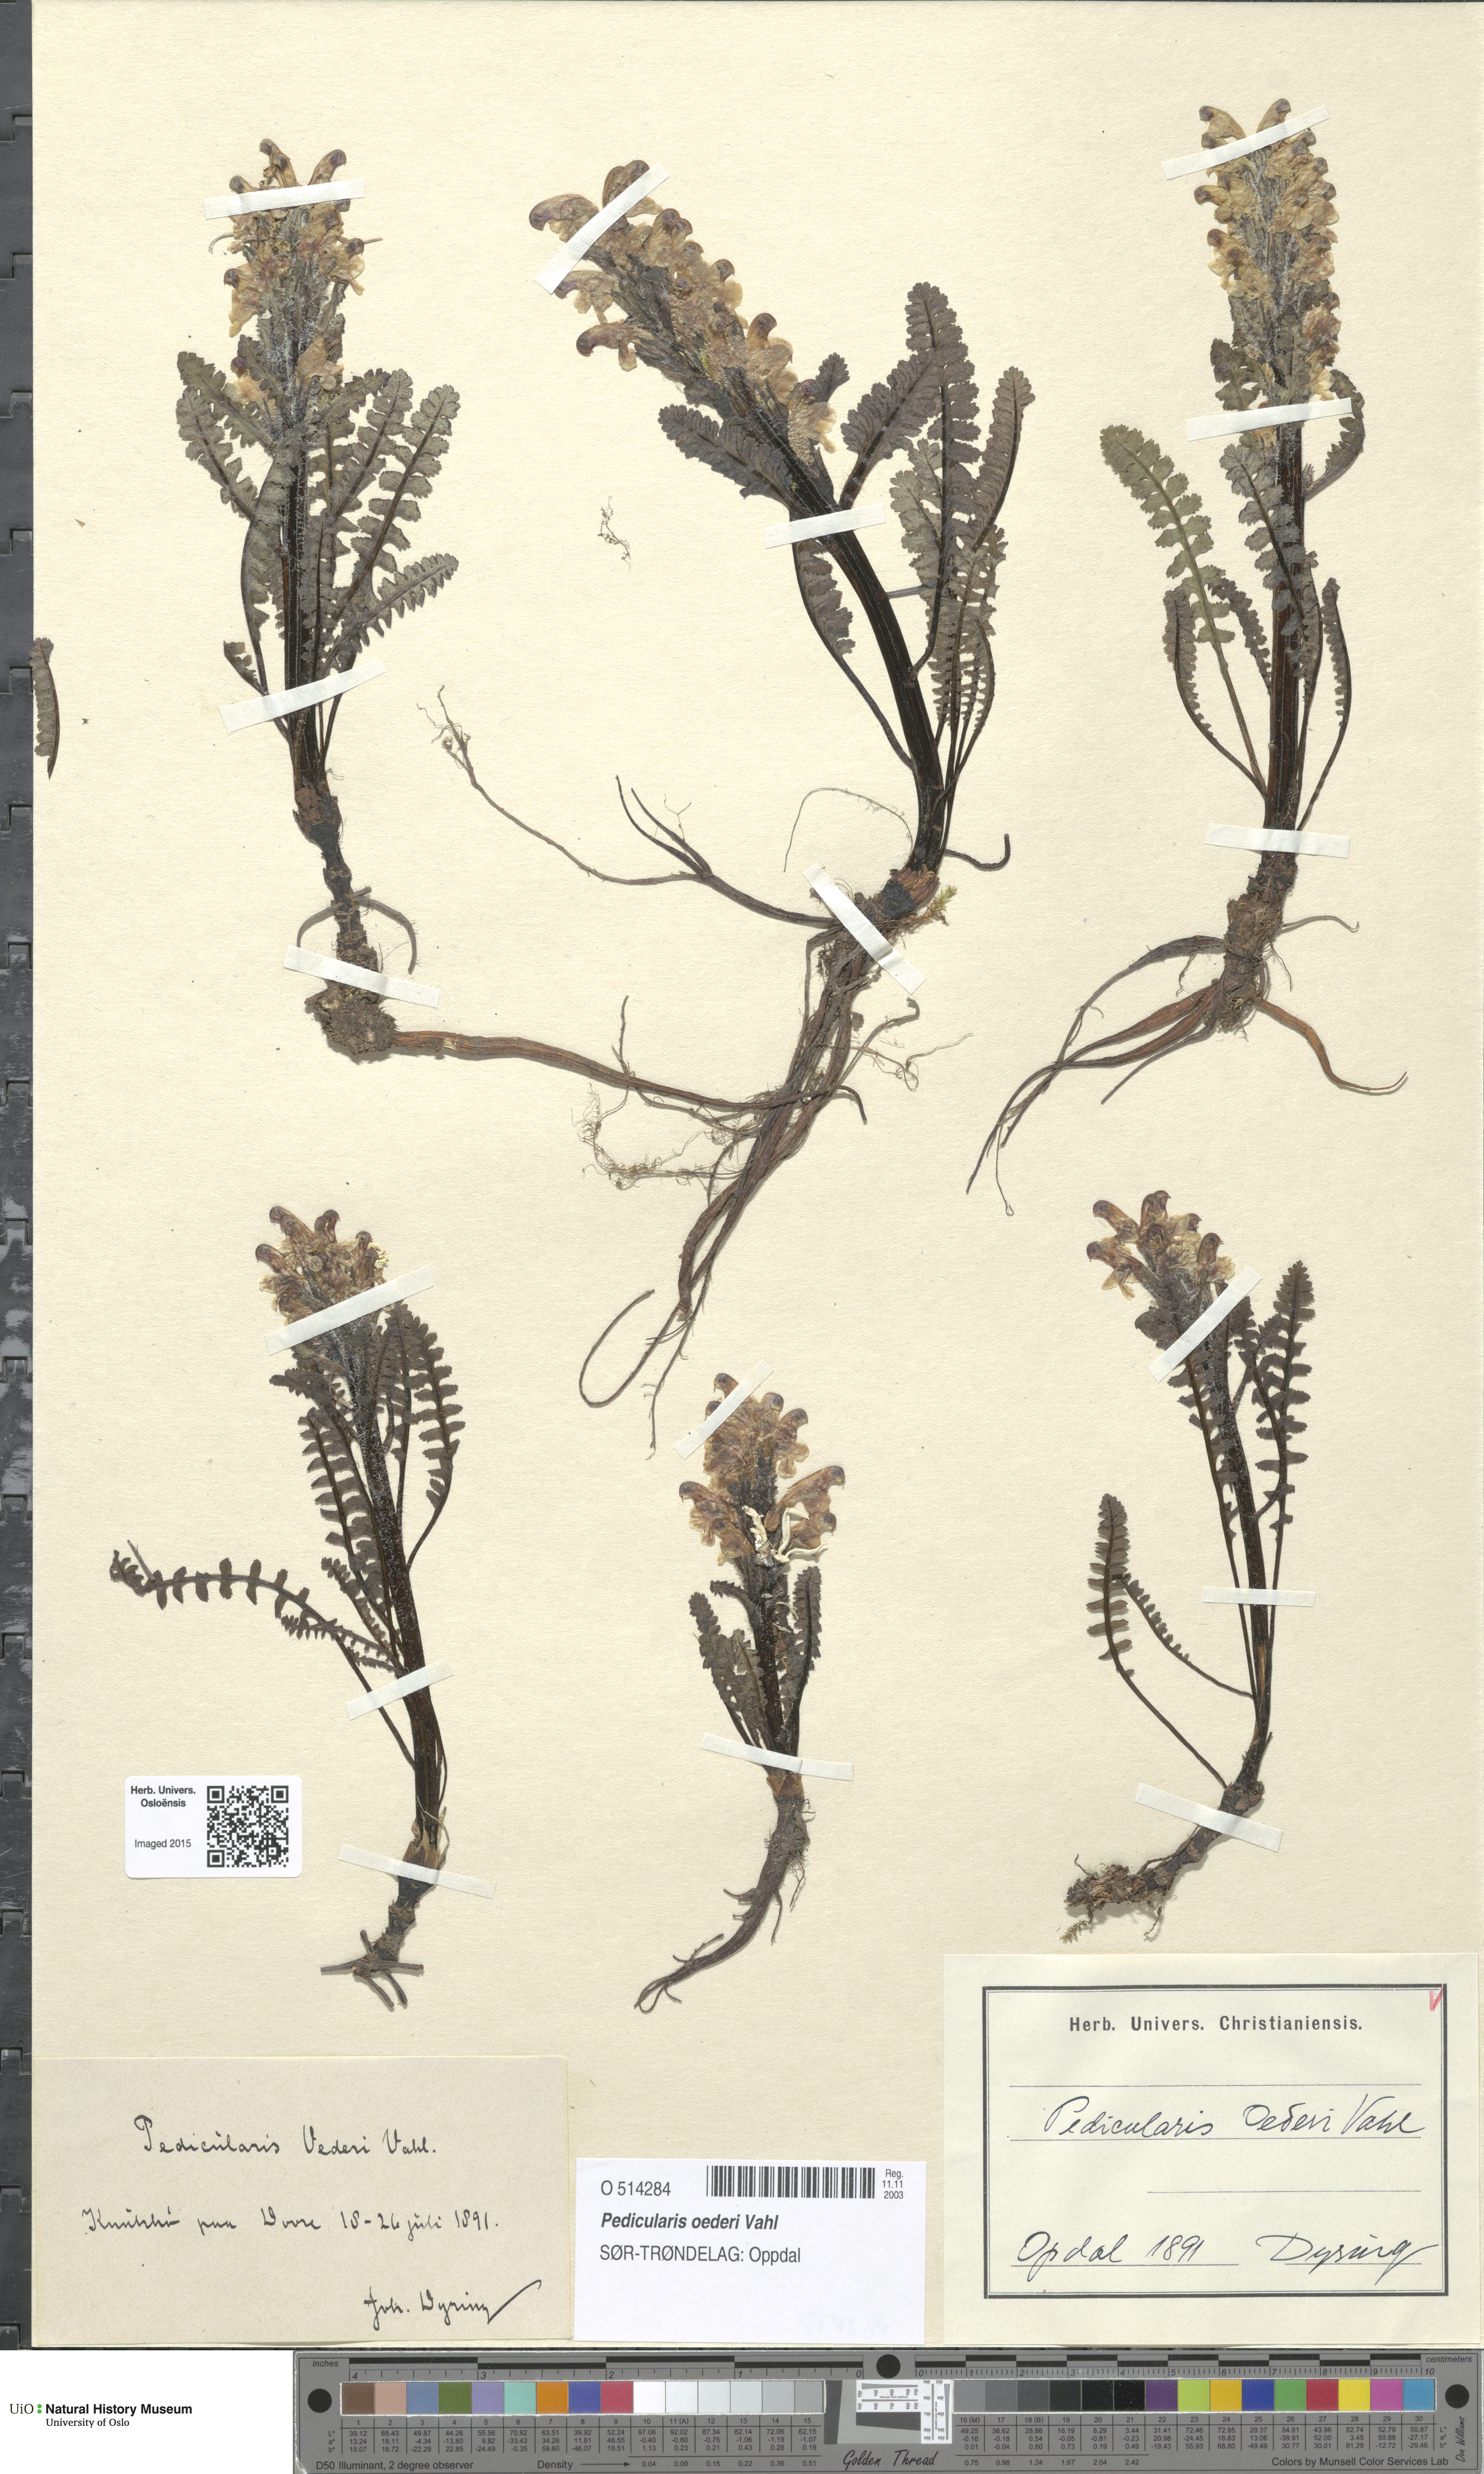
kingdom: Plantae
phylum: Tracheophyta
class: Magnoliopsida
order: Lamiales
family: Orobanchaceae
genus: Pedicularis
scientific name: Pedicularis oederi
